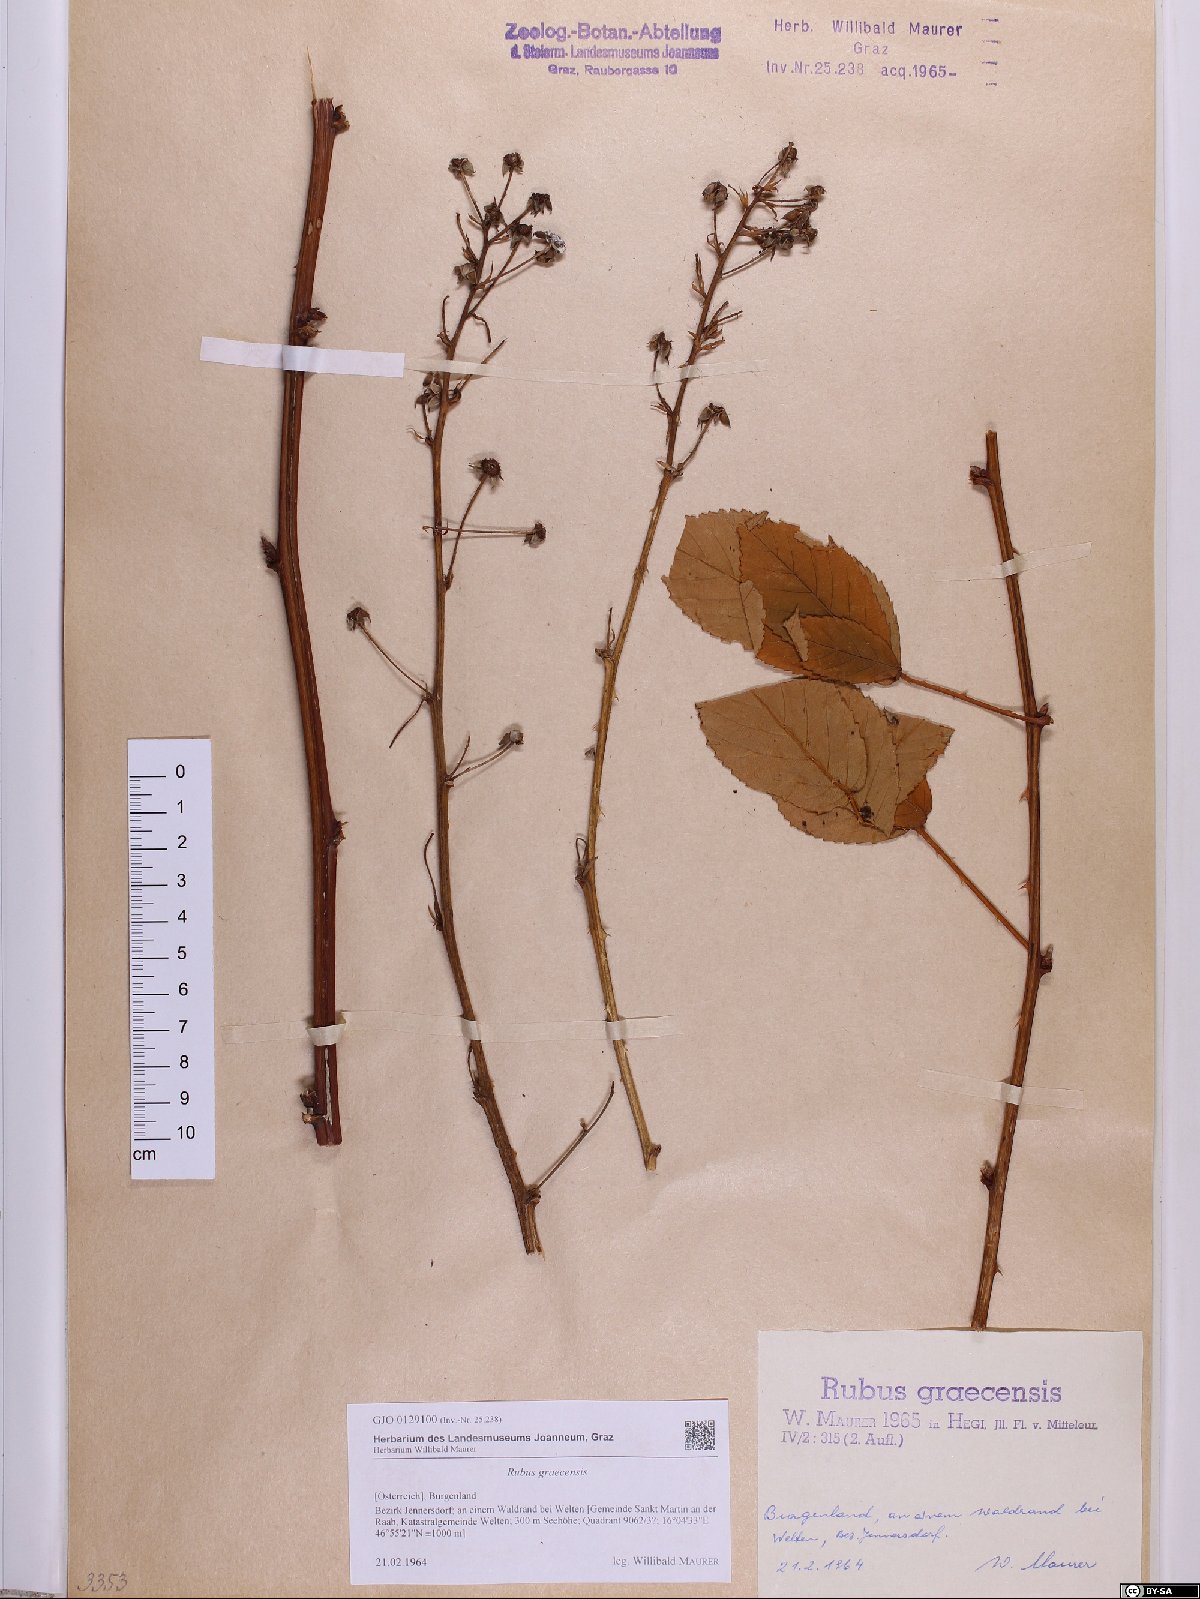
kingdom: Plantae
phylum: Tracheophyta
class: Magnoliopsida
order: Rosales
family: Rosaceae
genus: Rubus
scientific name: Rubus graecensis
